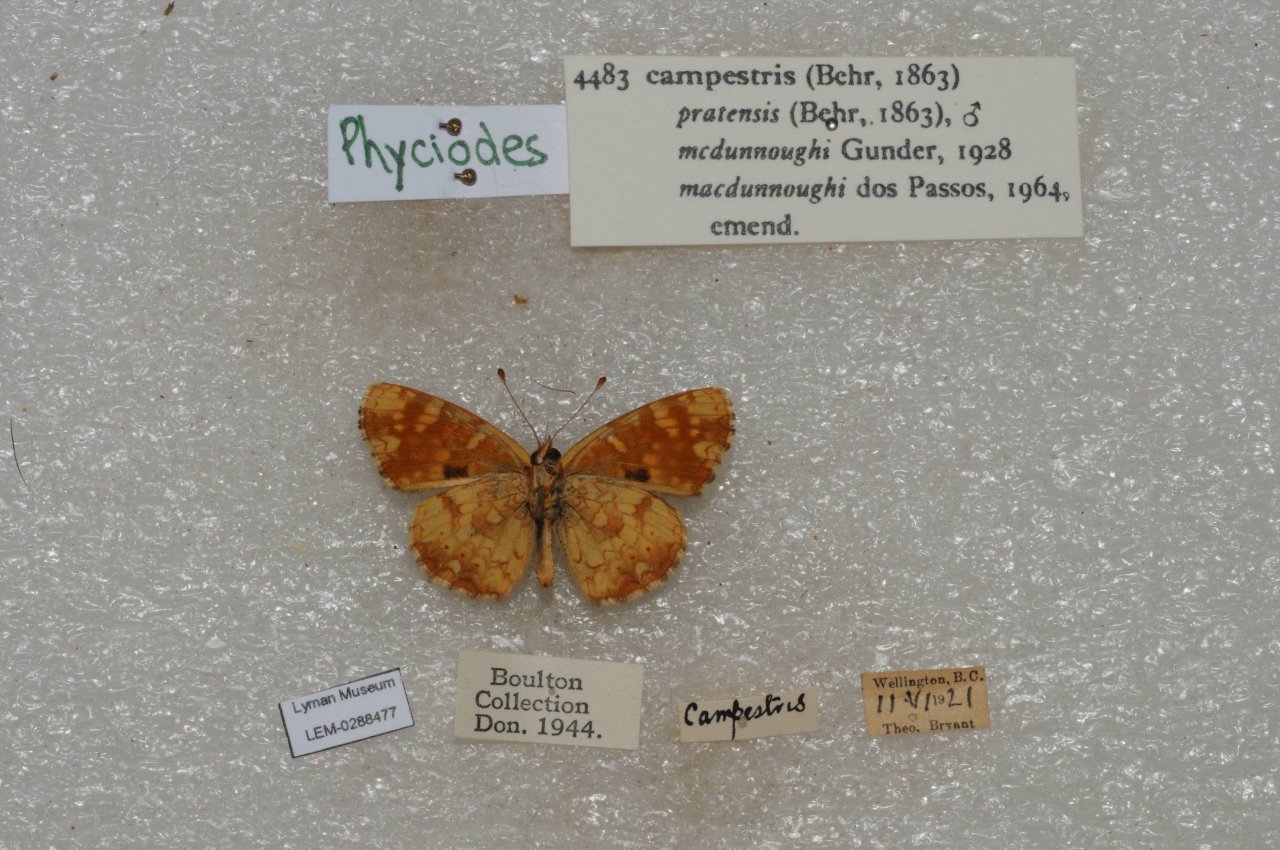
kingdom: Animalia
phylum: Arthropoda
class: Insecta
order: Lepidoptera
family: Nymphalidae
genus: Phyciodes
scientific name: Phyciodes tharos
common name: Field Crescent
